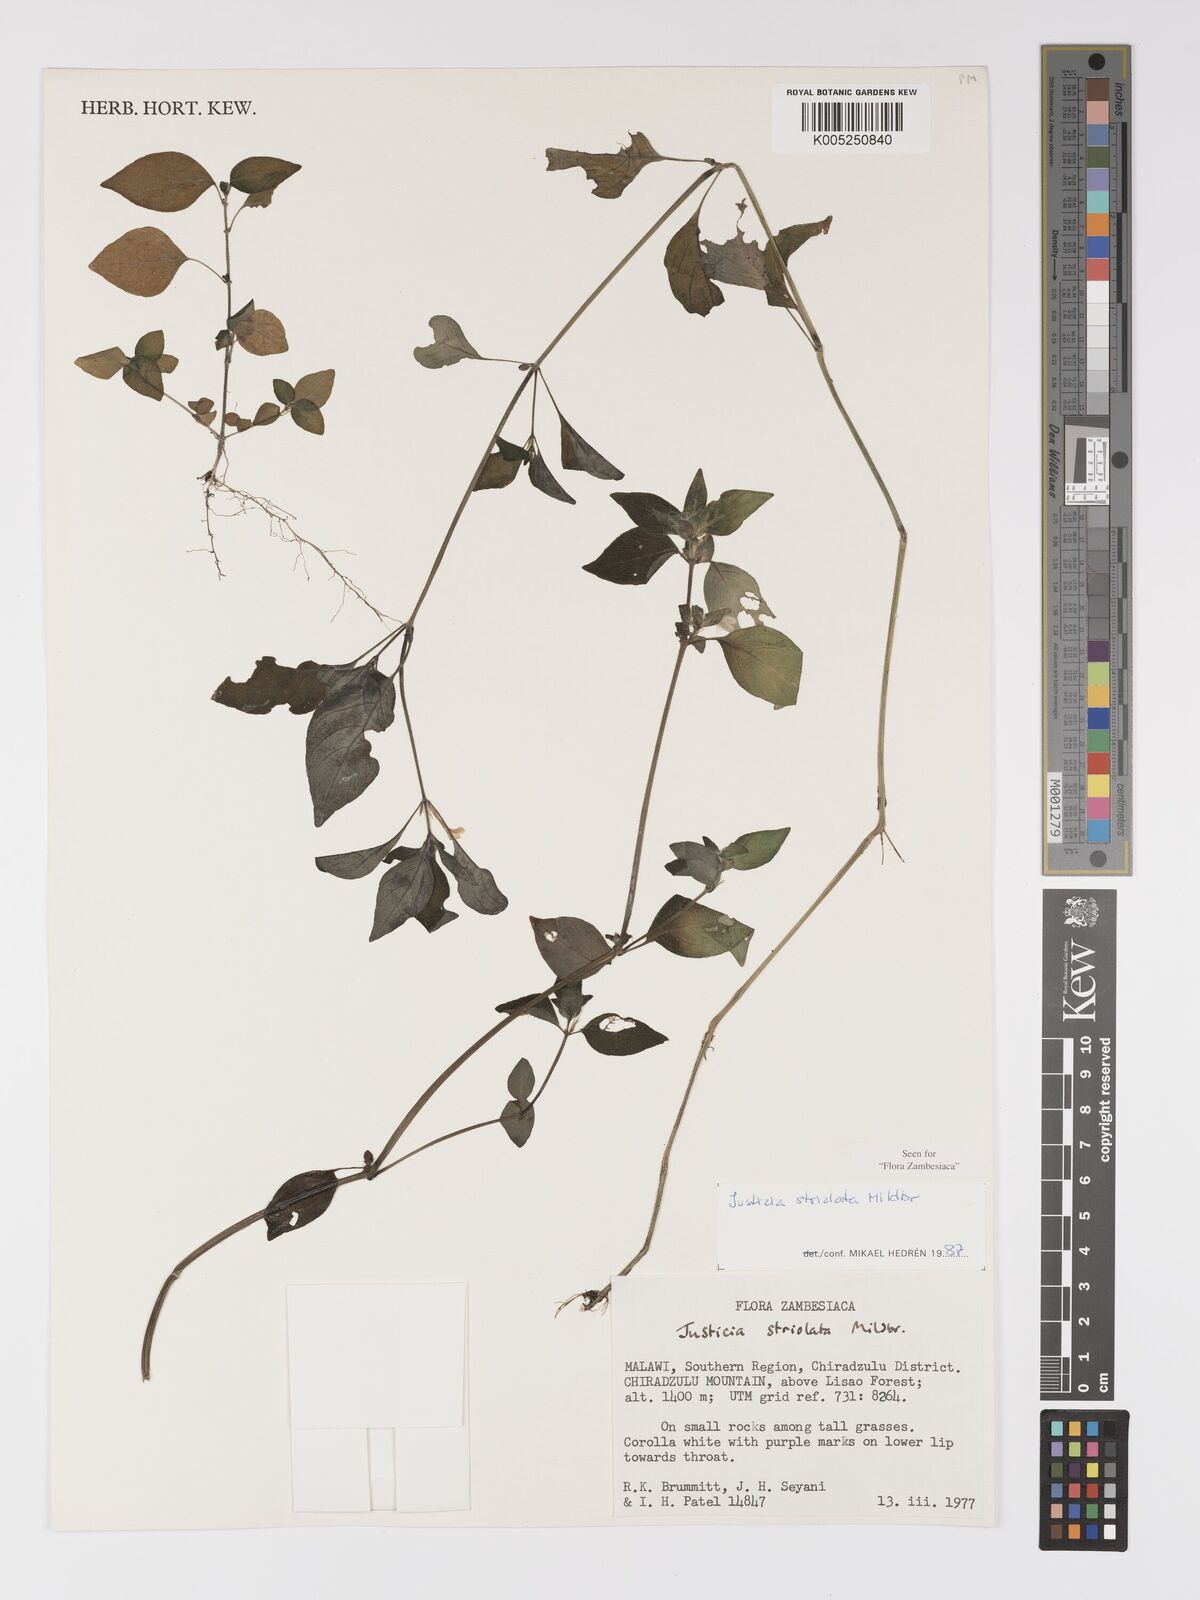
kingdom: Plantae
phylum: Tracheophyta
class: Magnoliopsida
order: Lamiales
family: Acanthaceae
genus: Justicia
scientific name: Justicia striolata
